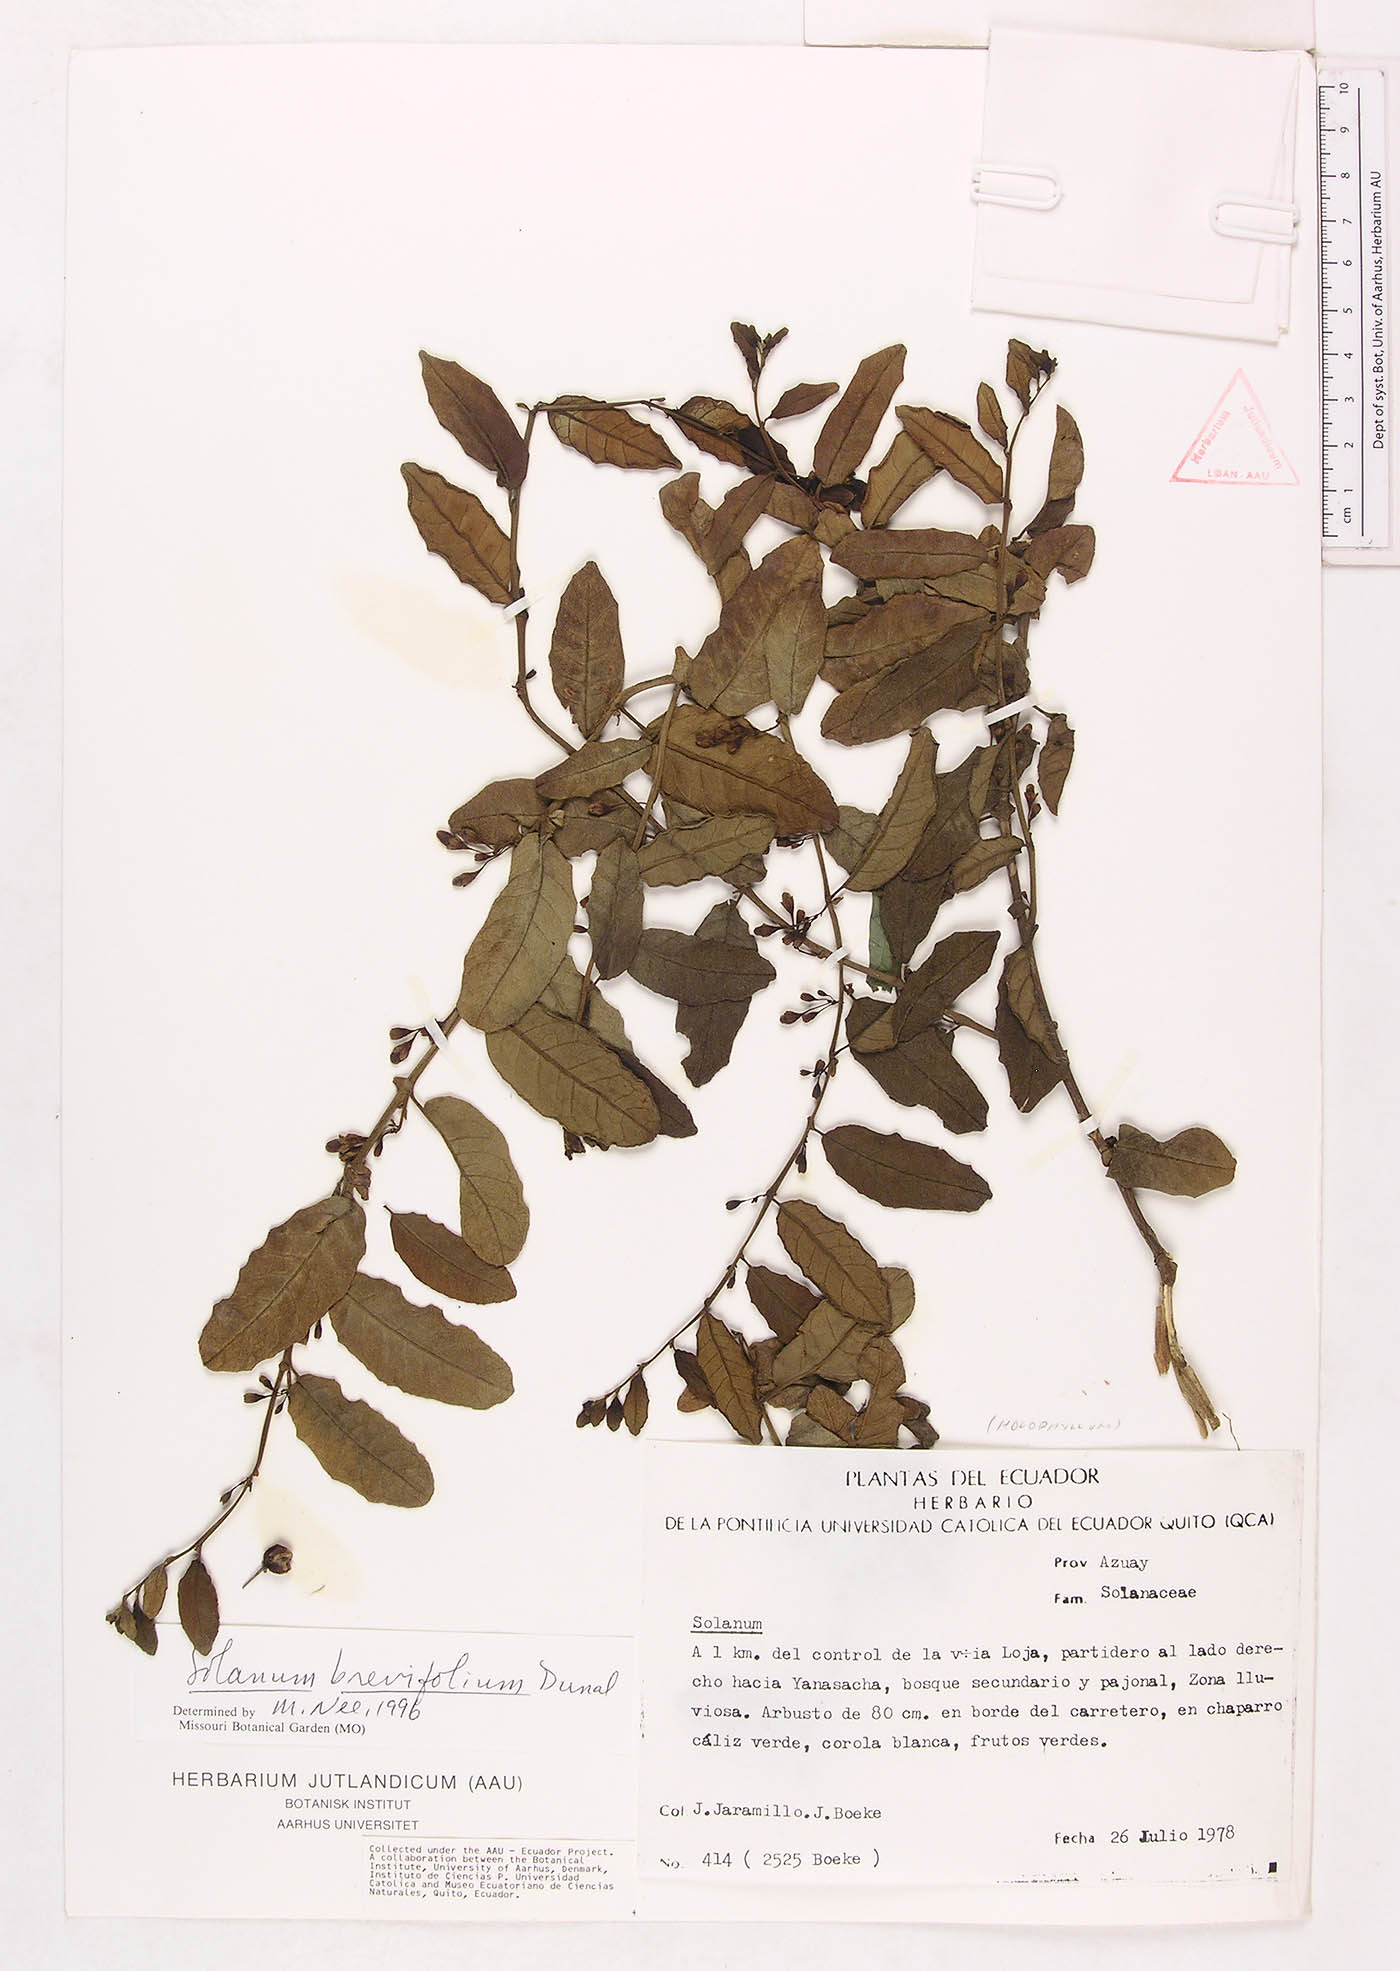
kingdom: Plantae
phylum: Tracheophyta
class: Magnoliopsida
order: Solanales
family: Solanaceae
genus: Solanum
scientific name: Solanum brevifolium
